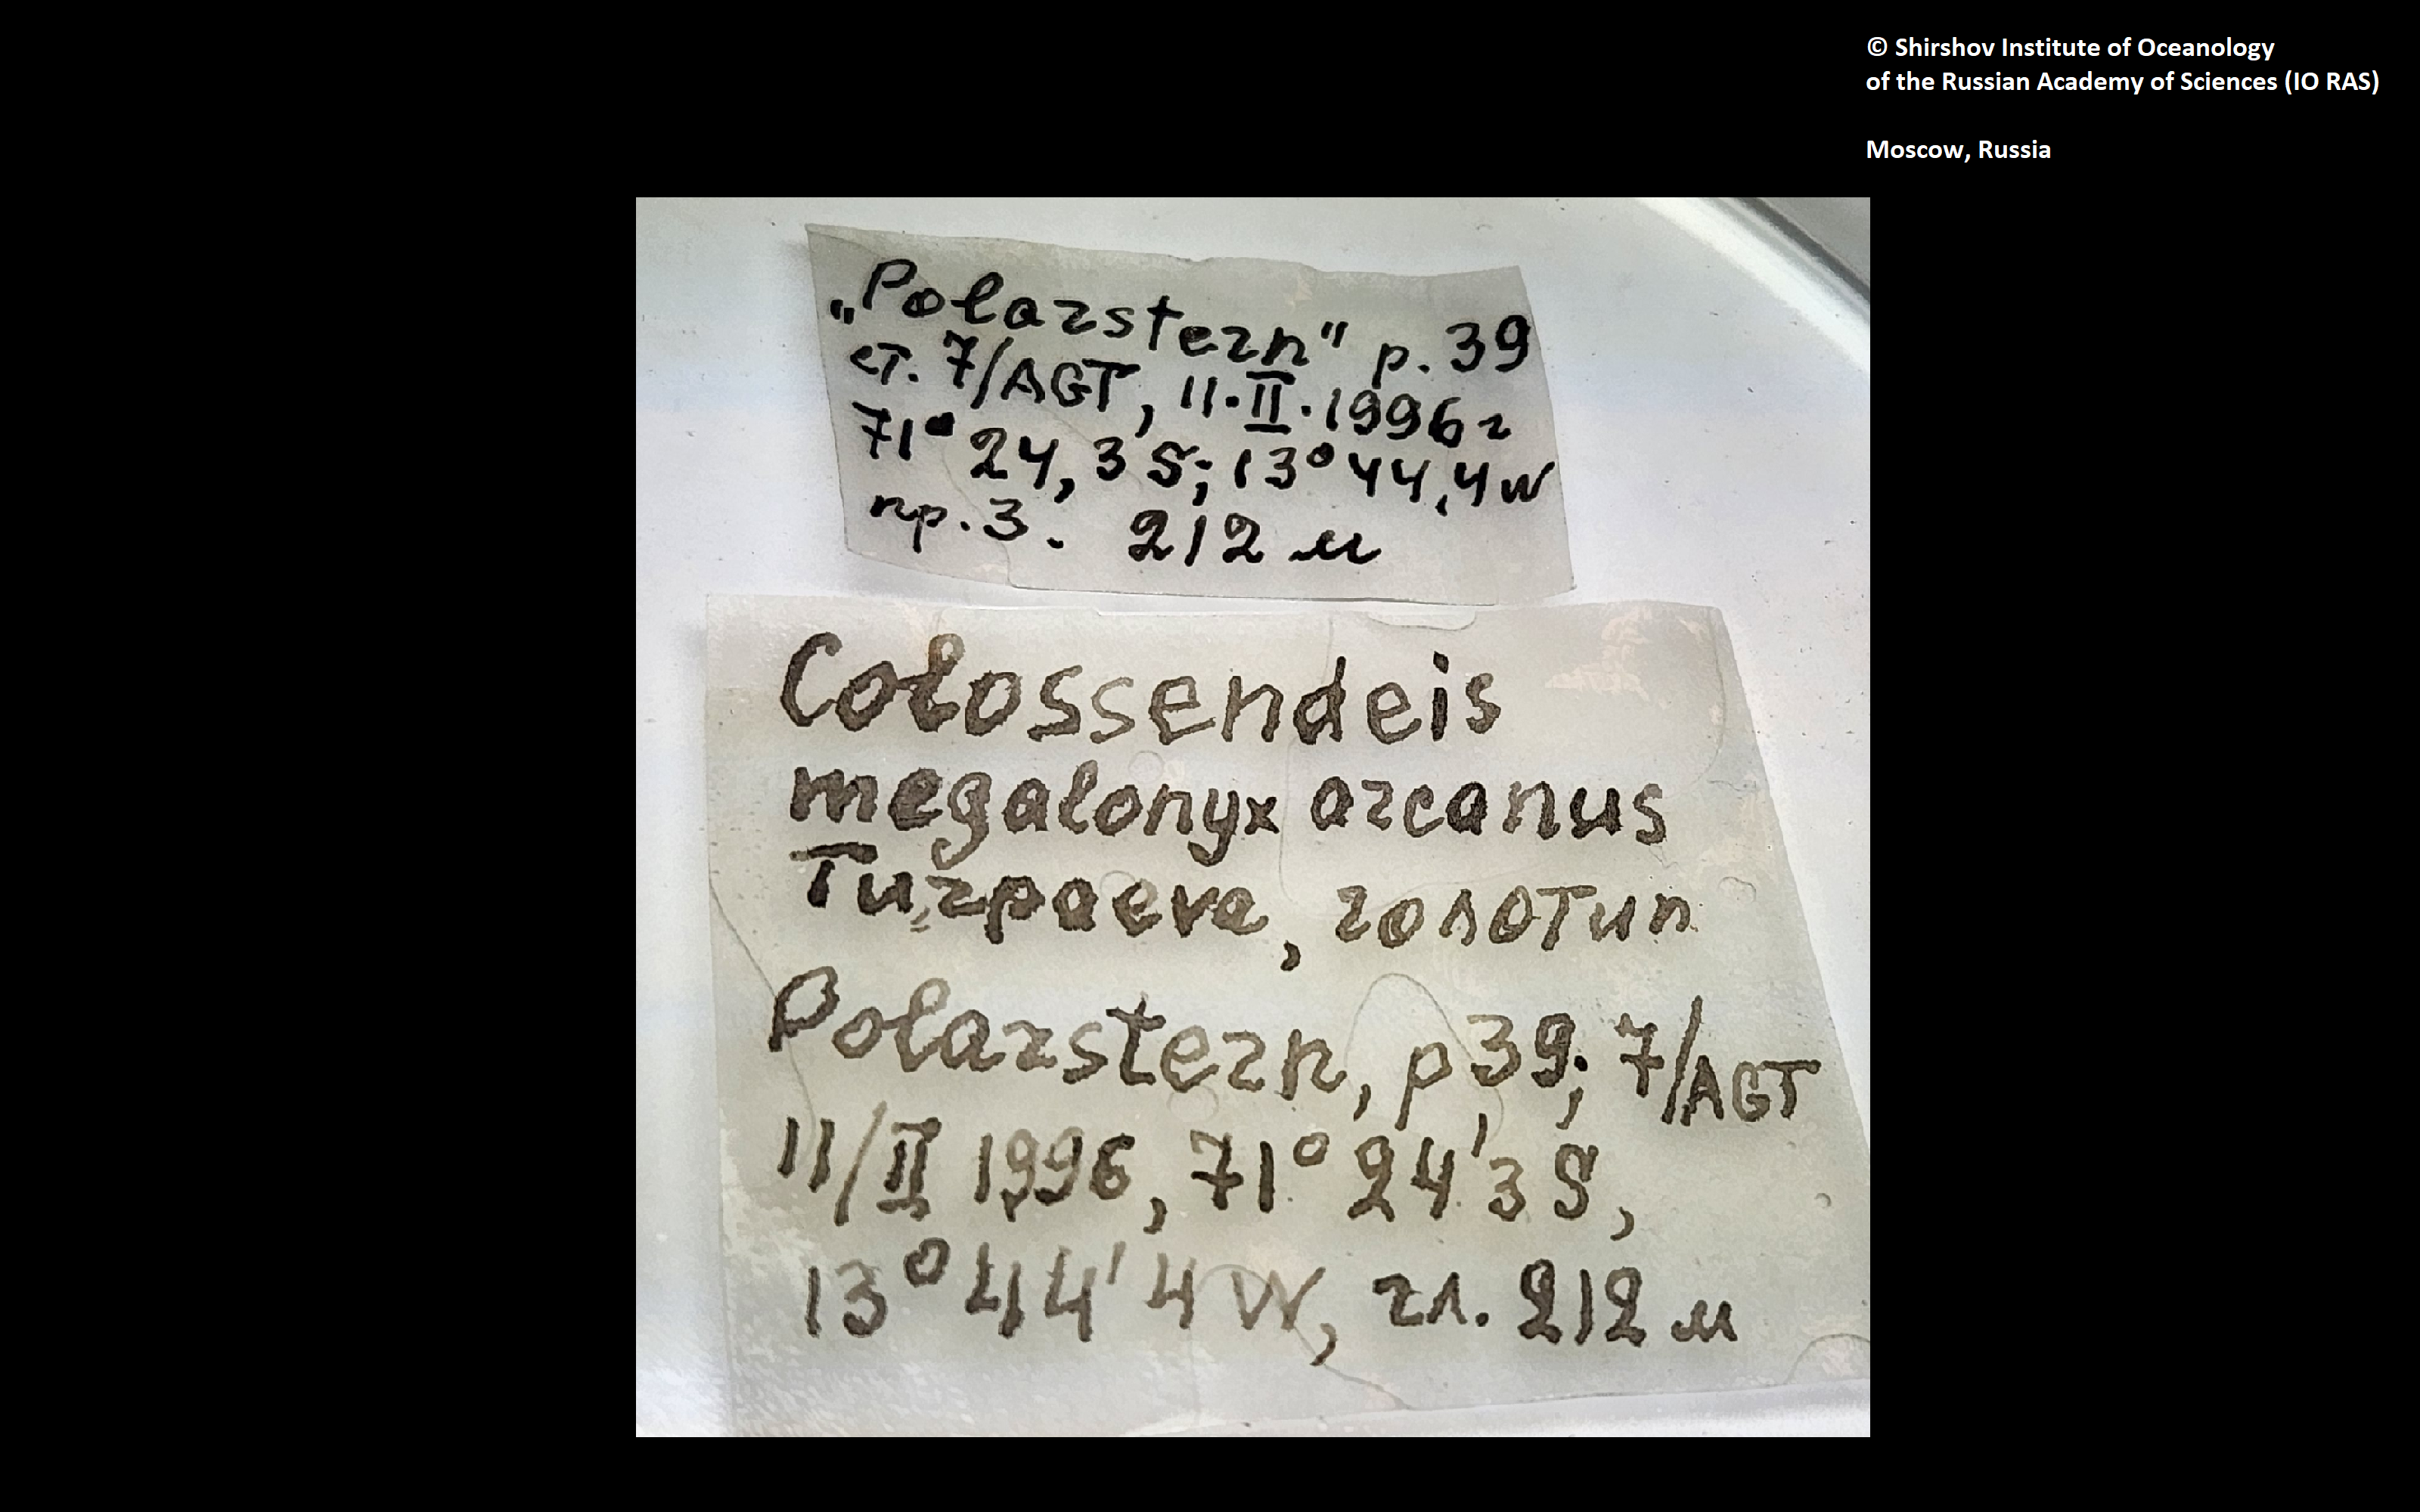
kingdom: Animalia
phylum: Arthropoda
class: Pycnogonida
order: Pantopoda
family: Colossendeidae
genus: Colossendeis
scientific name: Colossendeis megalonyx
